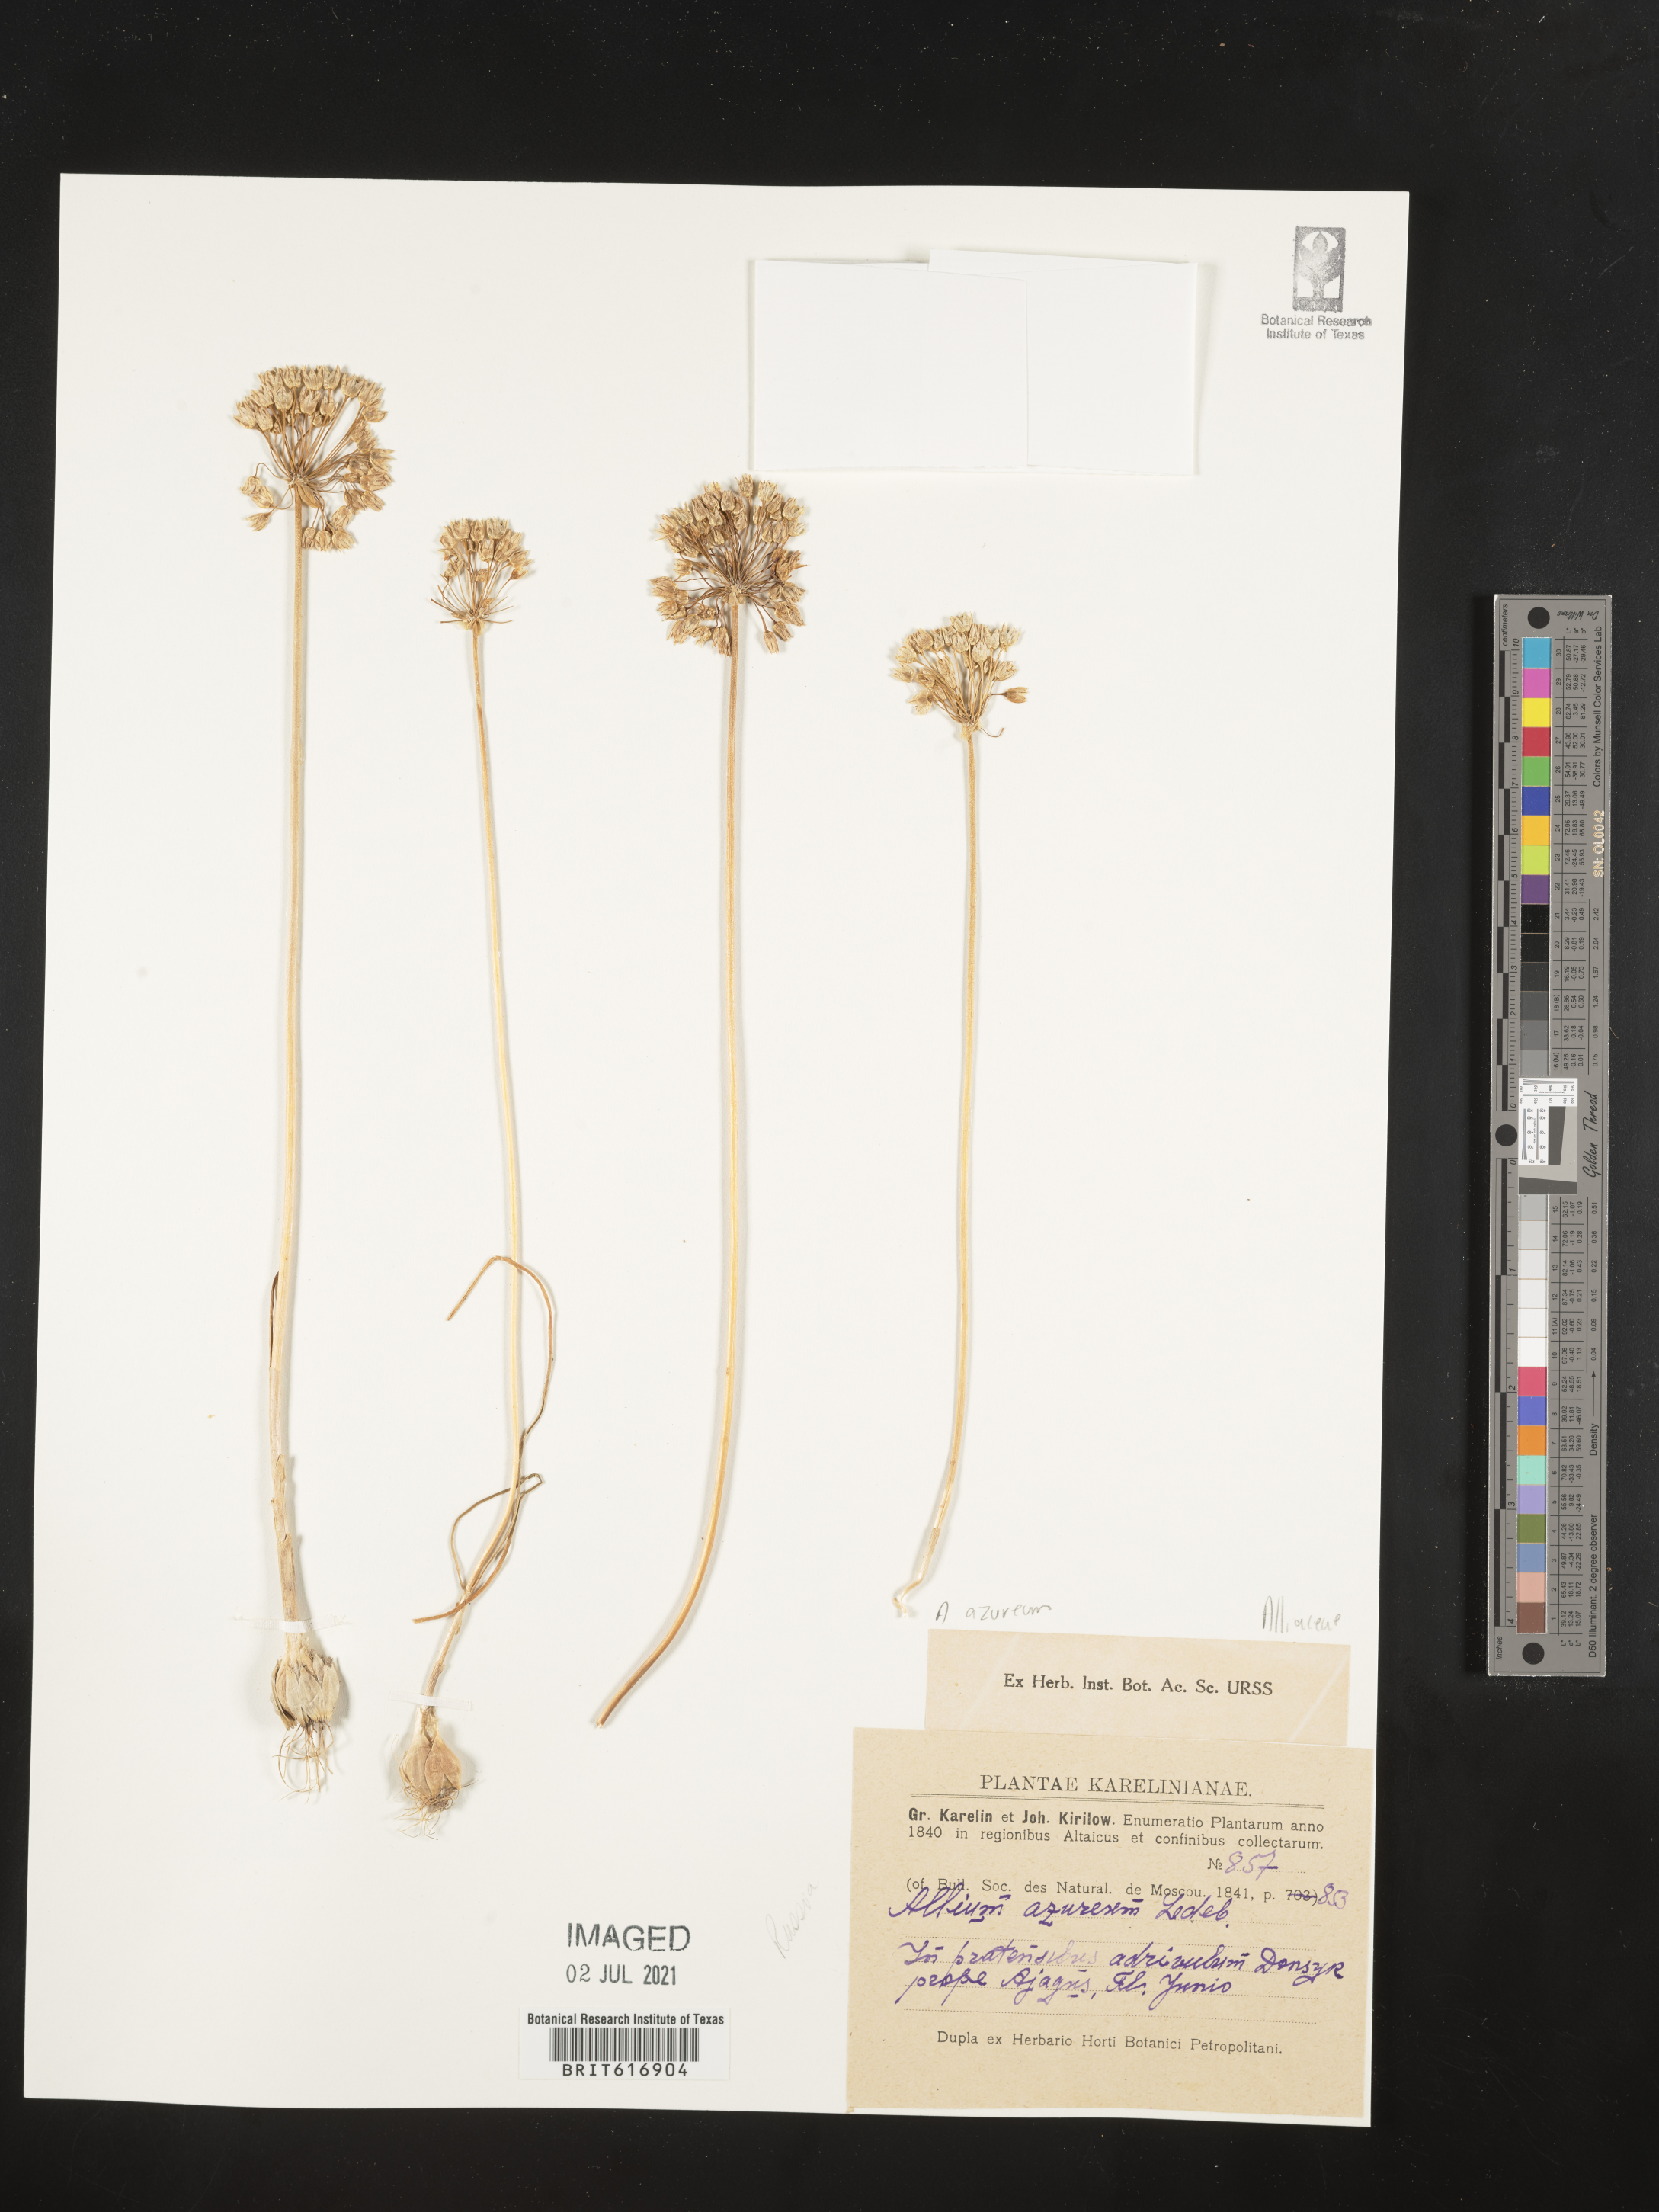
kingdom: Plantae
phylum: Tracheophyta
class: Liliopsida
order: Asparagales
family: Amaryllidaceae
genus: Allium
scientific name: Allium caeruleum
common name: Blue-of-the-heavens
